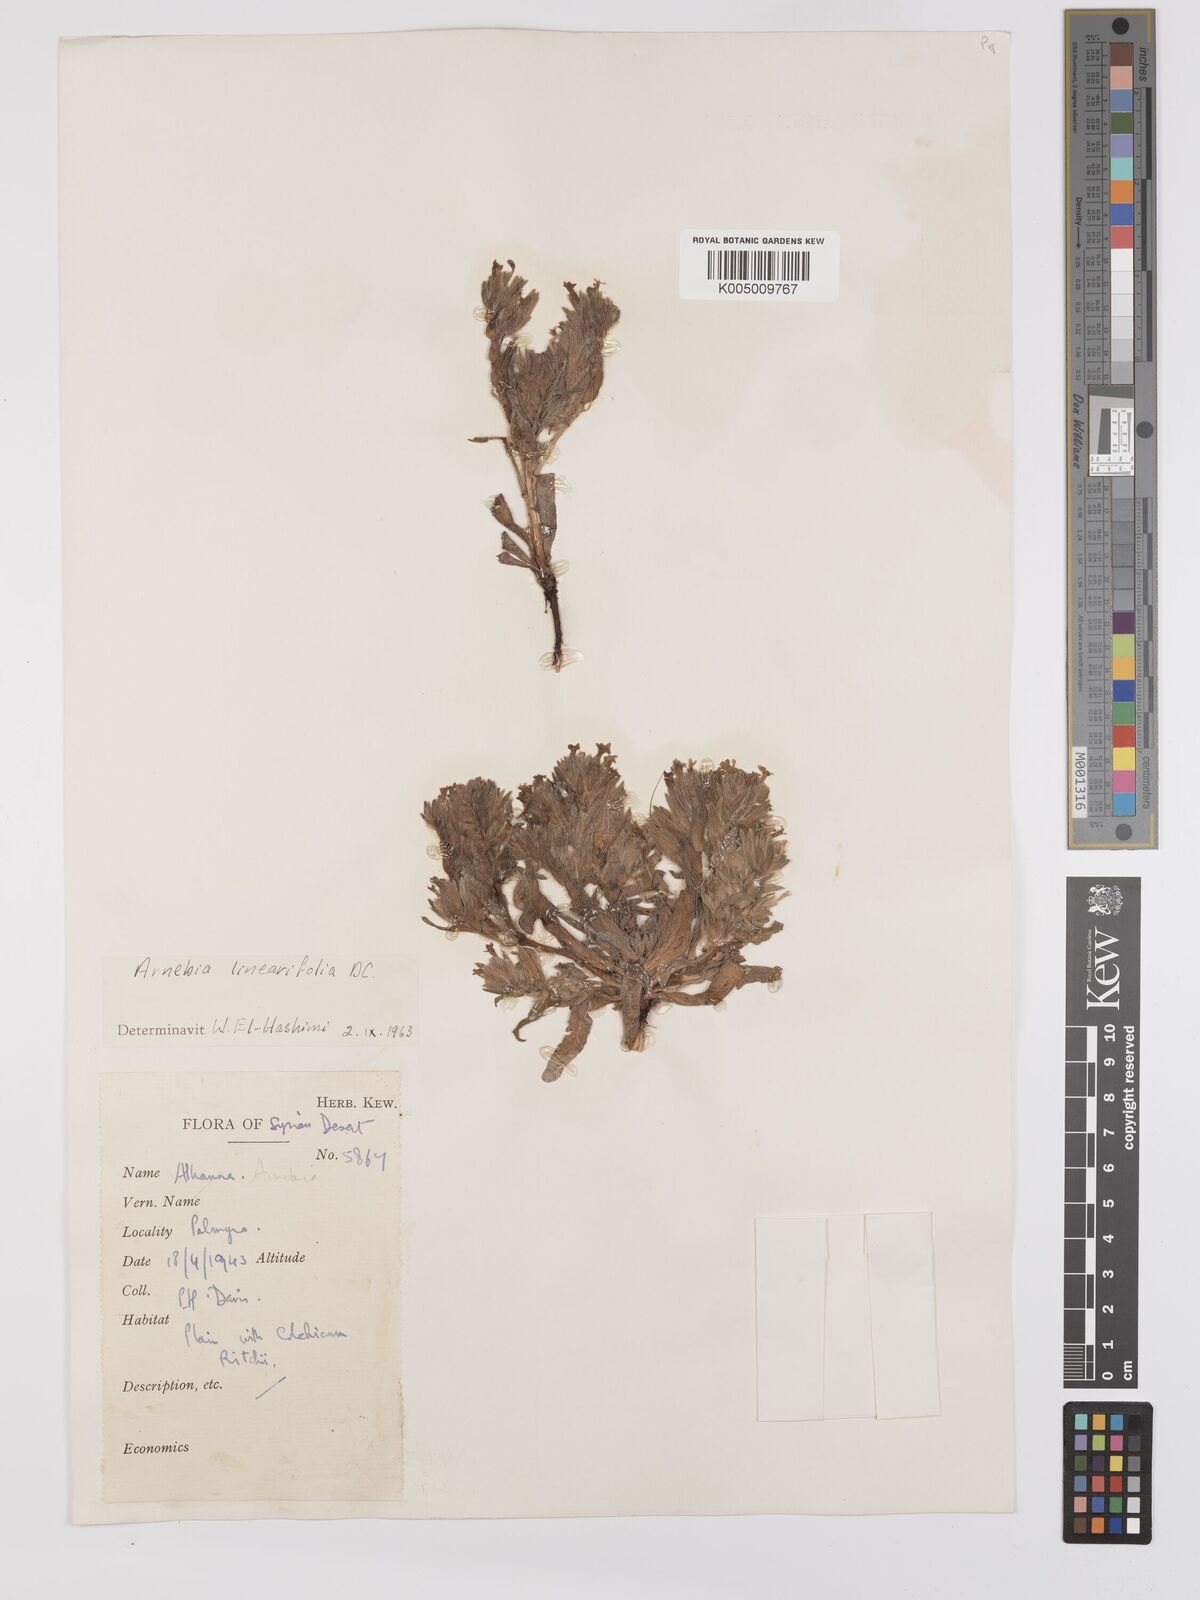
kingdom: Plantae
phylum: Tracheophyta
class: Magnoliopsida
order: Boraginales
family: Boraginaceae
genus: Arnebia
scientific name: Arnebia linearifolia
